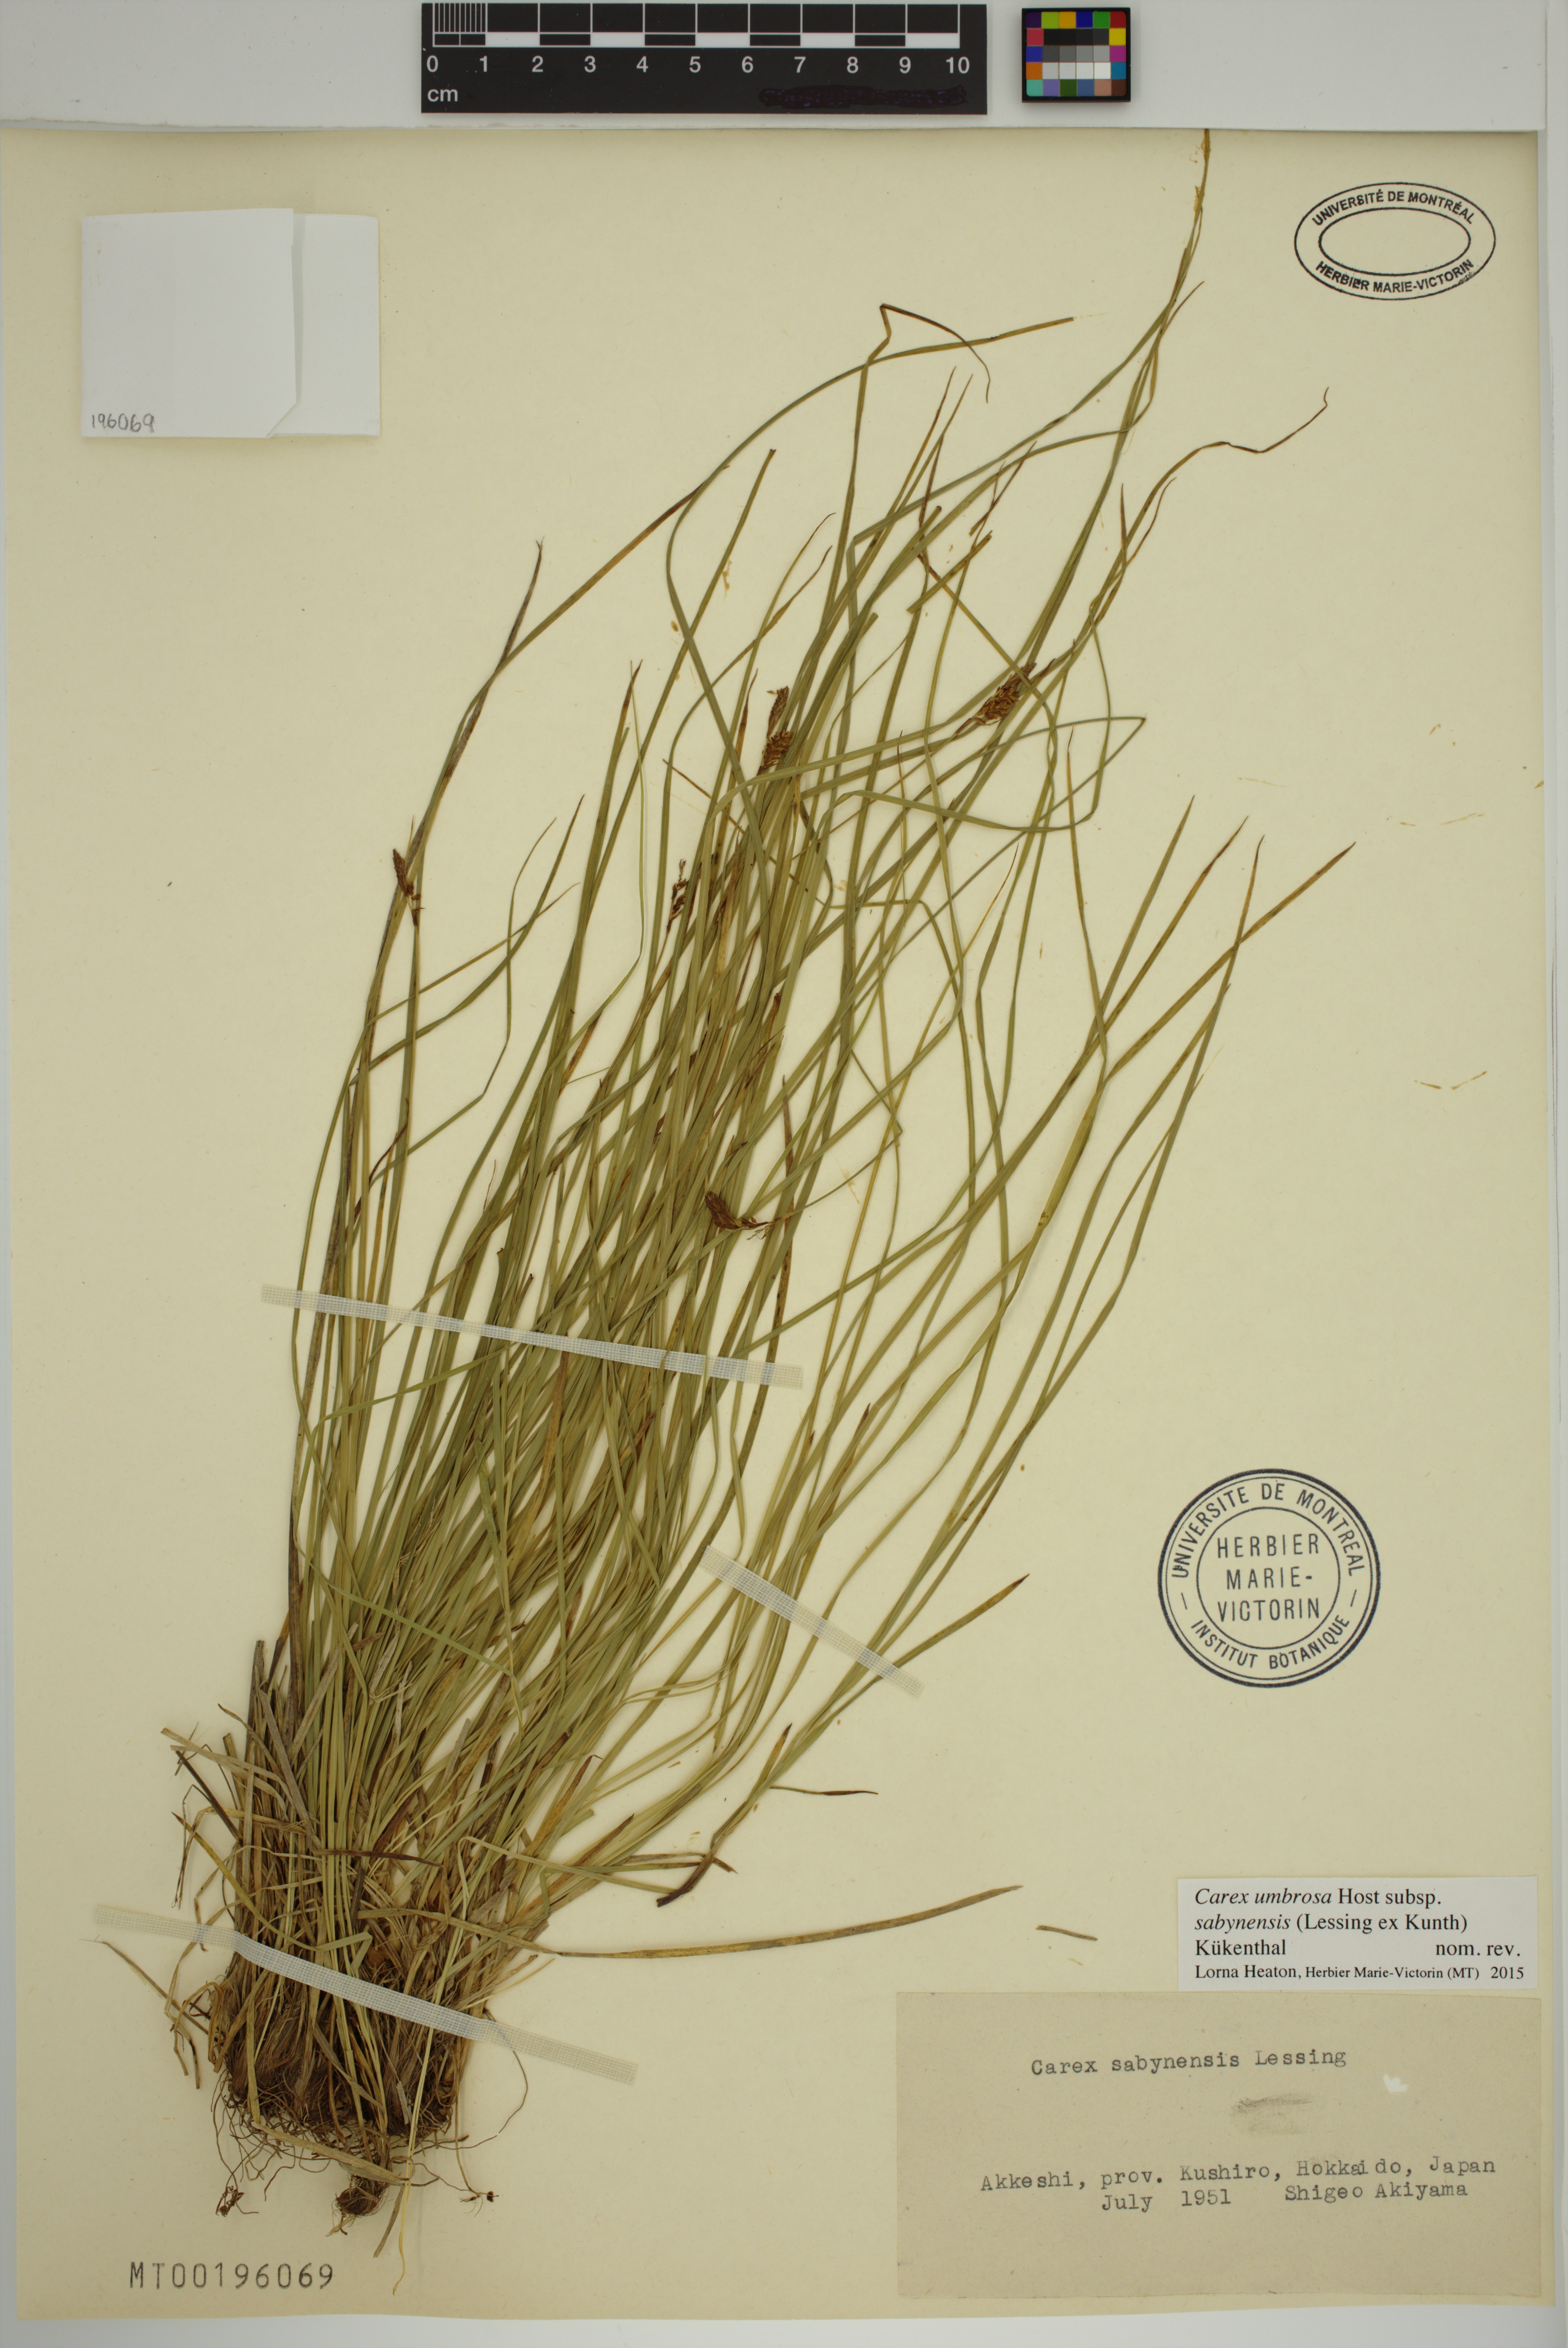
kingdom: Plantae
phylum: Tracheophyta
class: Liliopsida
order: Poales
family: Cyperaceae
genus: Carex
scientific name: Carex umbrosa
